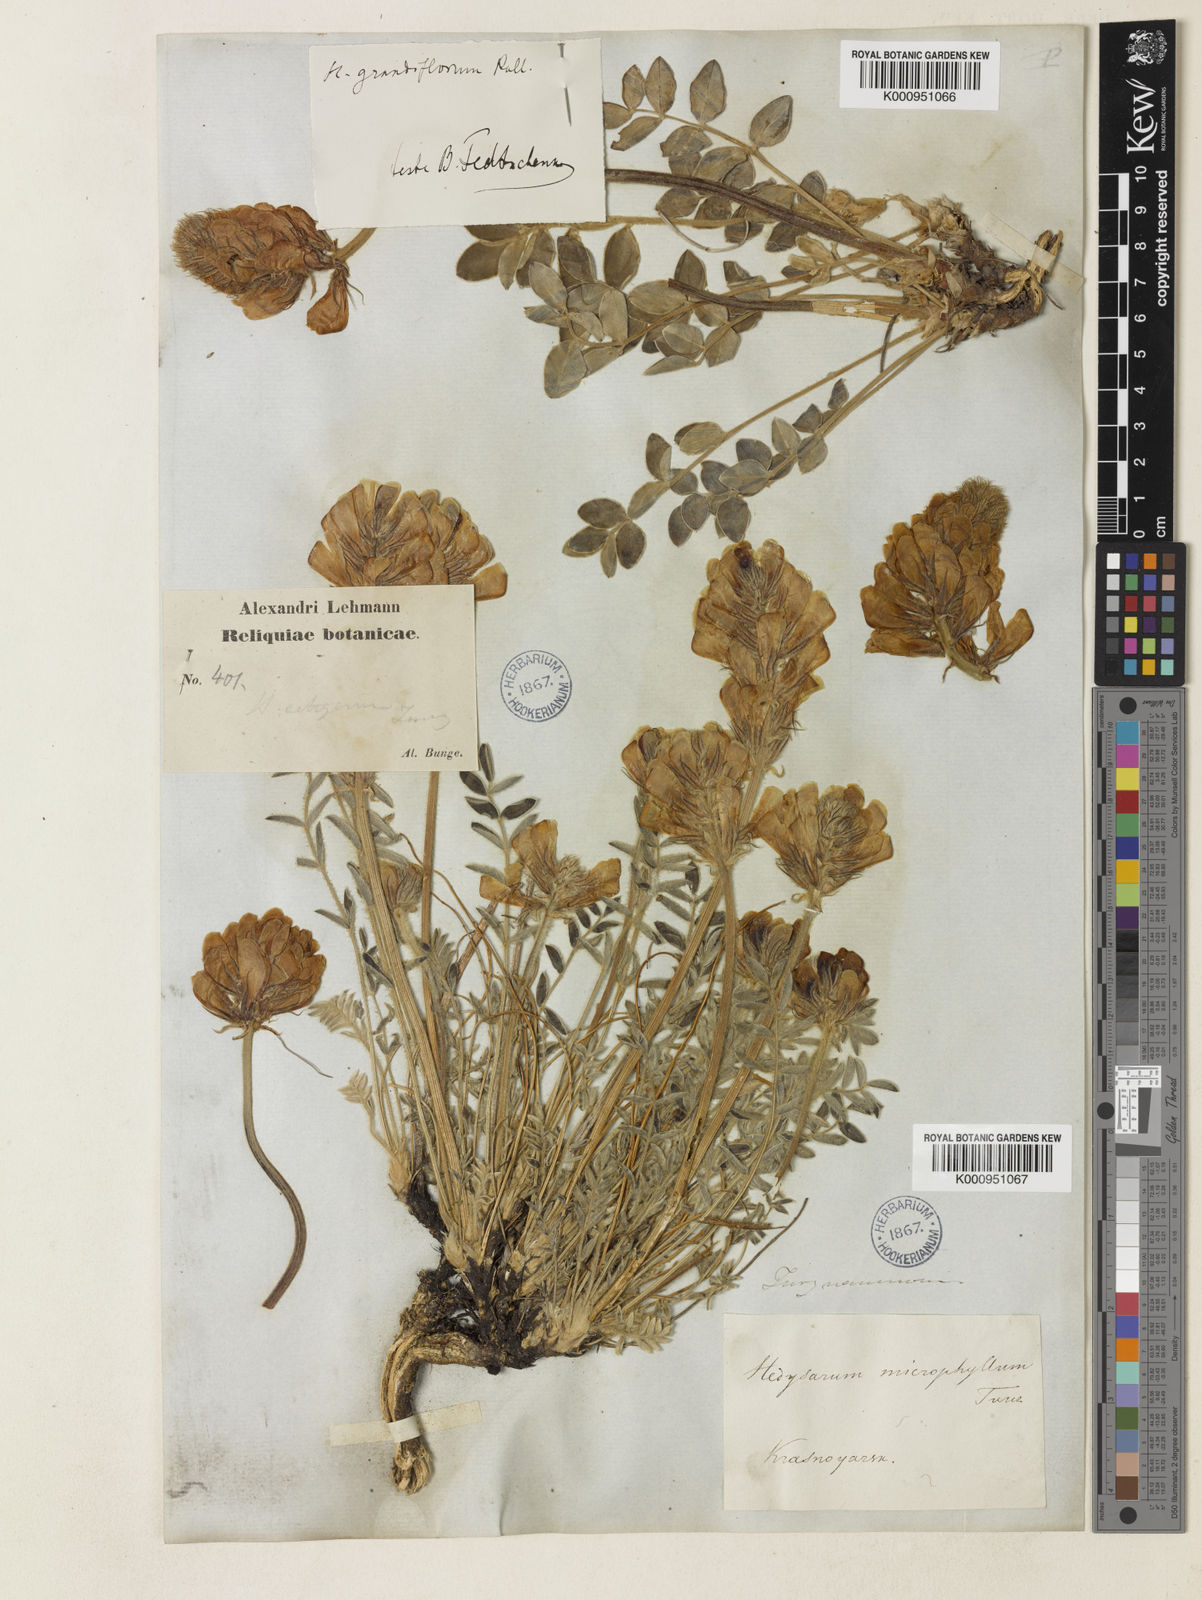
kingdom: Plantae
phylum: Tracheophyta
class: Magnoliopsida
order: Fabales
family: Fabaceae
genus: Hedysarum
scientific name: Hedysarum turczaninovii
